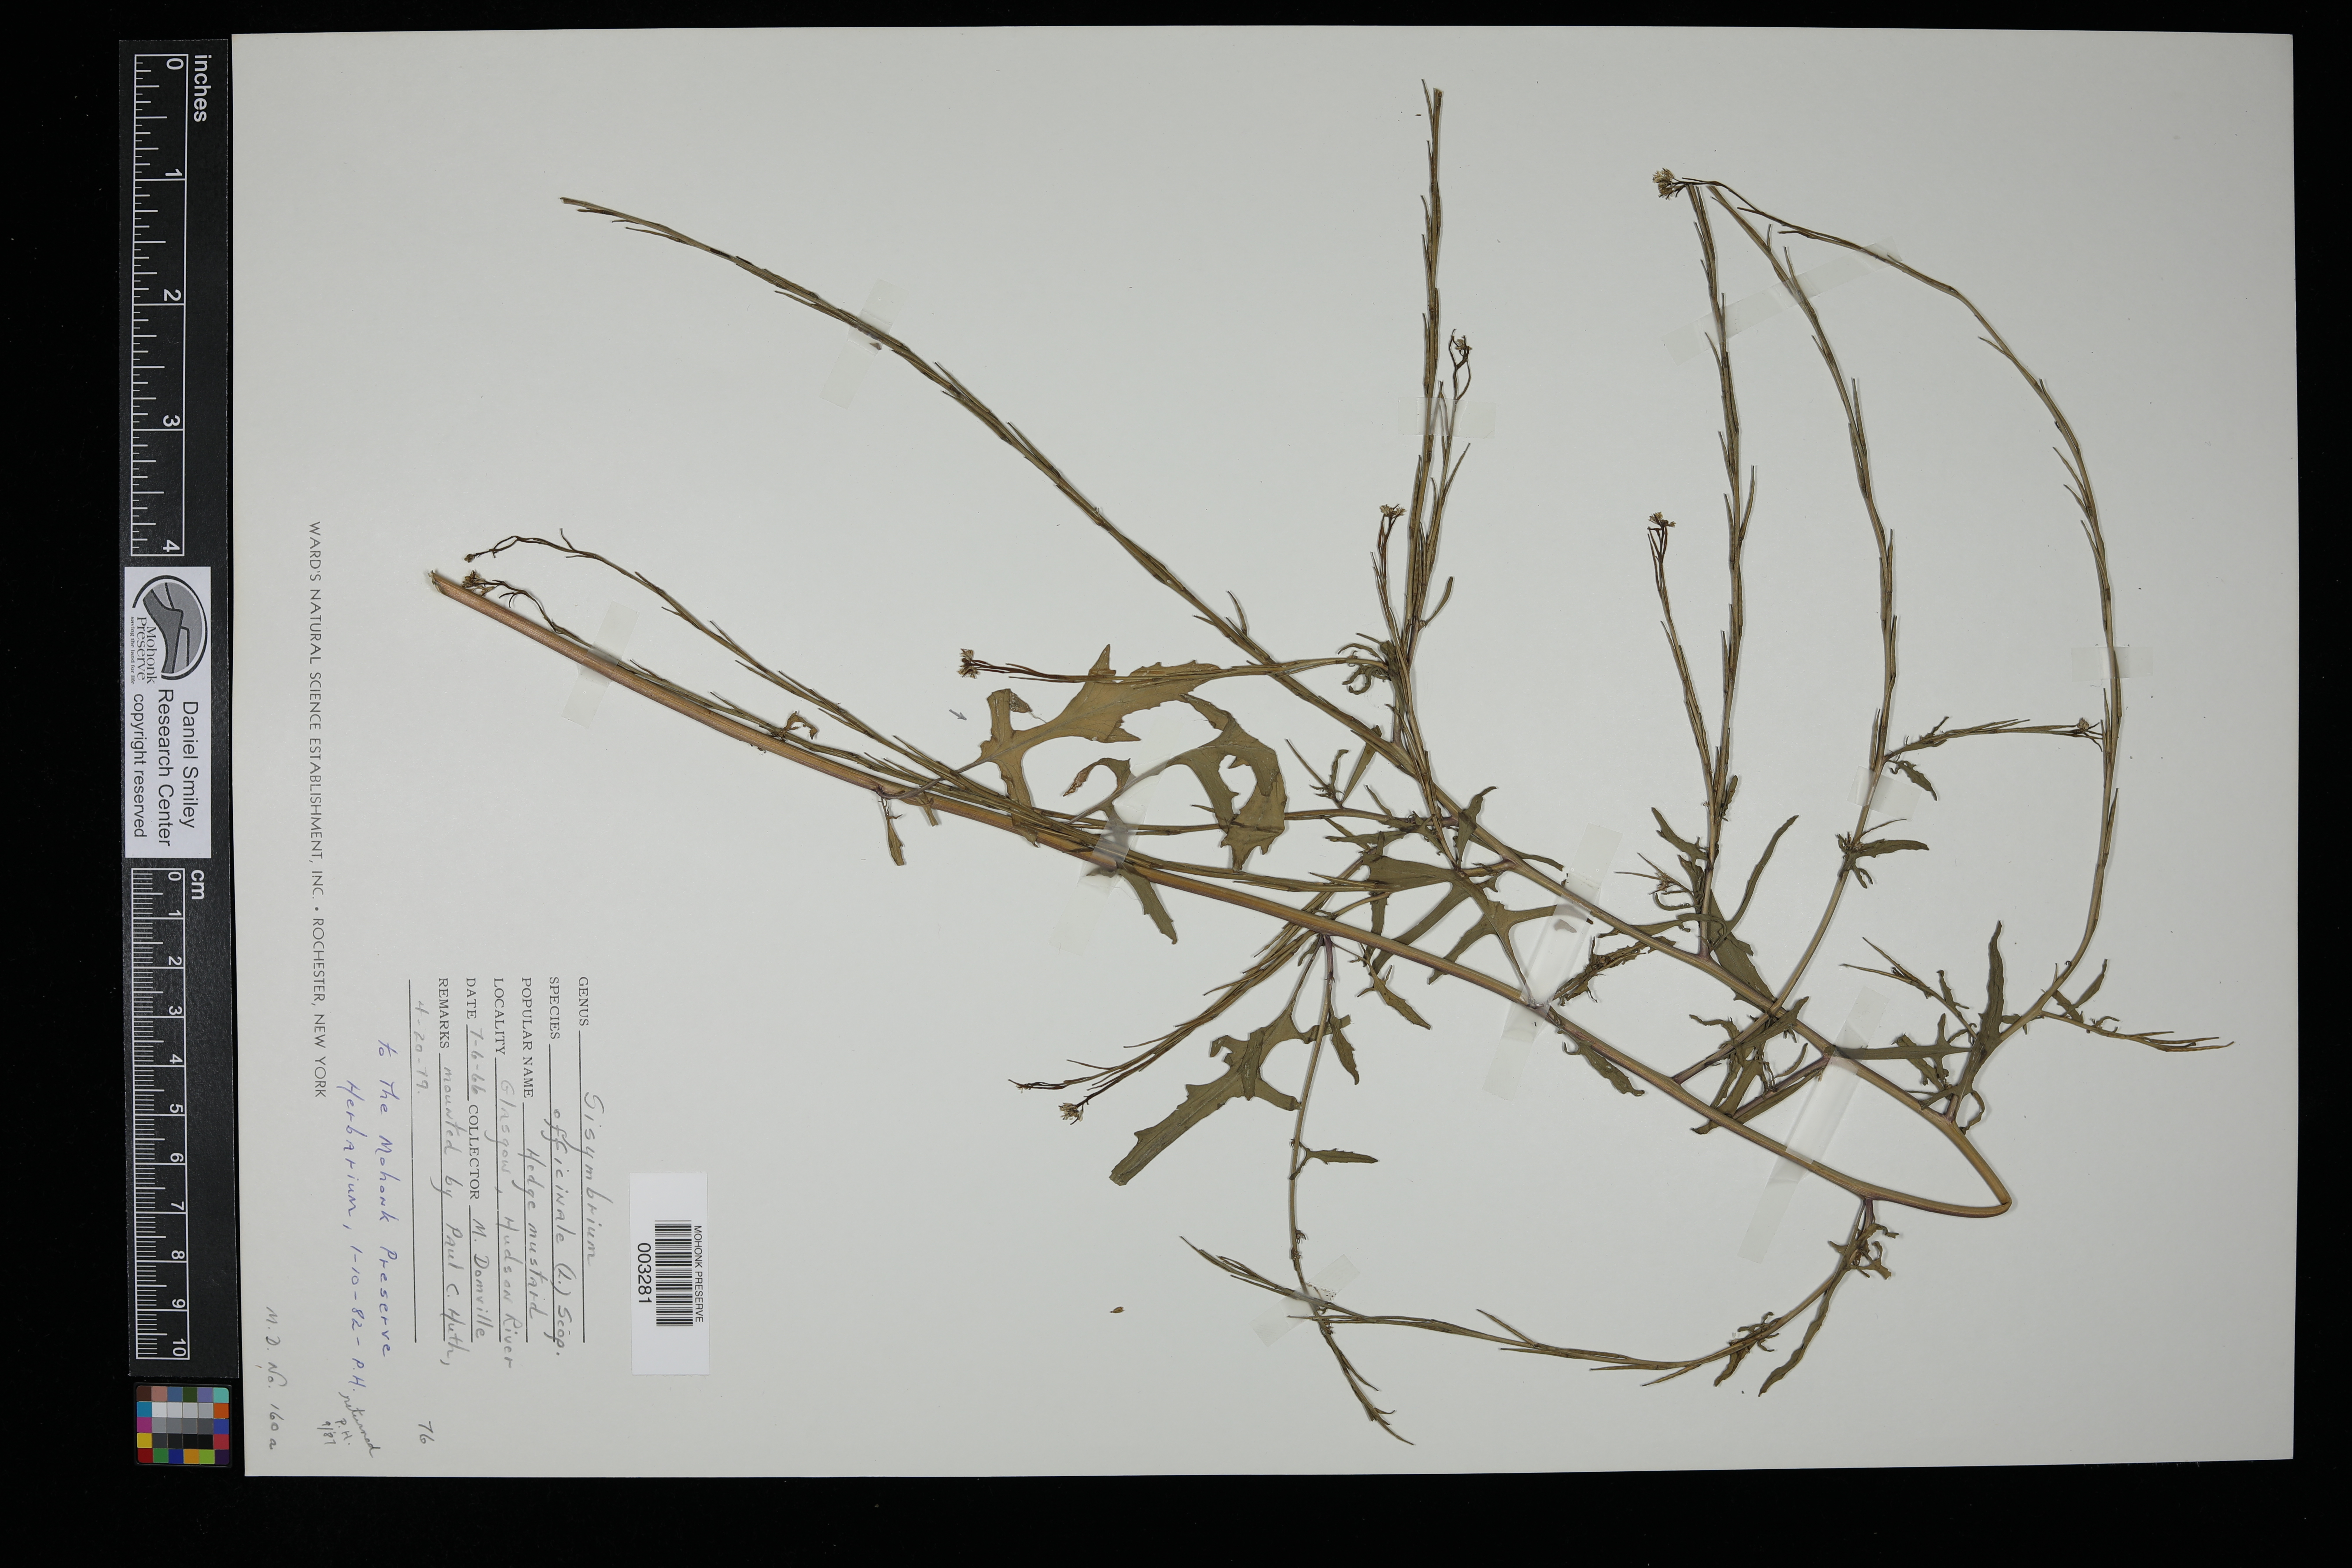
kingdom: Plantae
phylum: Tracheophyta
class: Magnoliopsida
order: Brassicales
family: Brassicaceae
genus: Sisymbrium
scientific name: Sisymbrium officinale
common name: Hedge mustard
